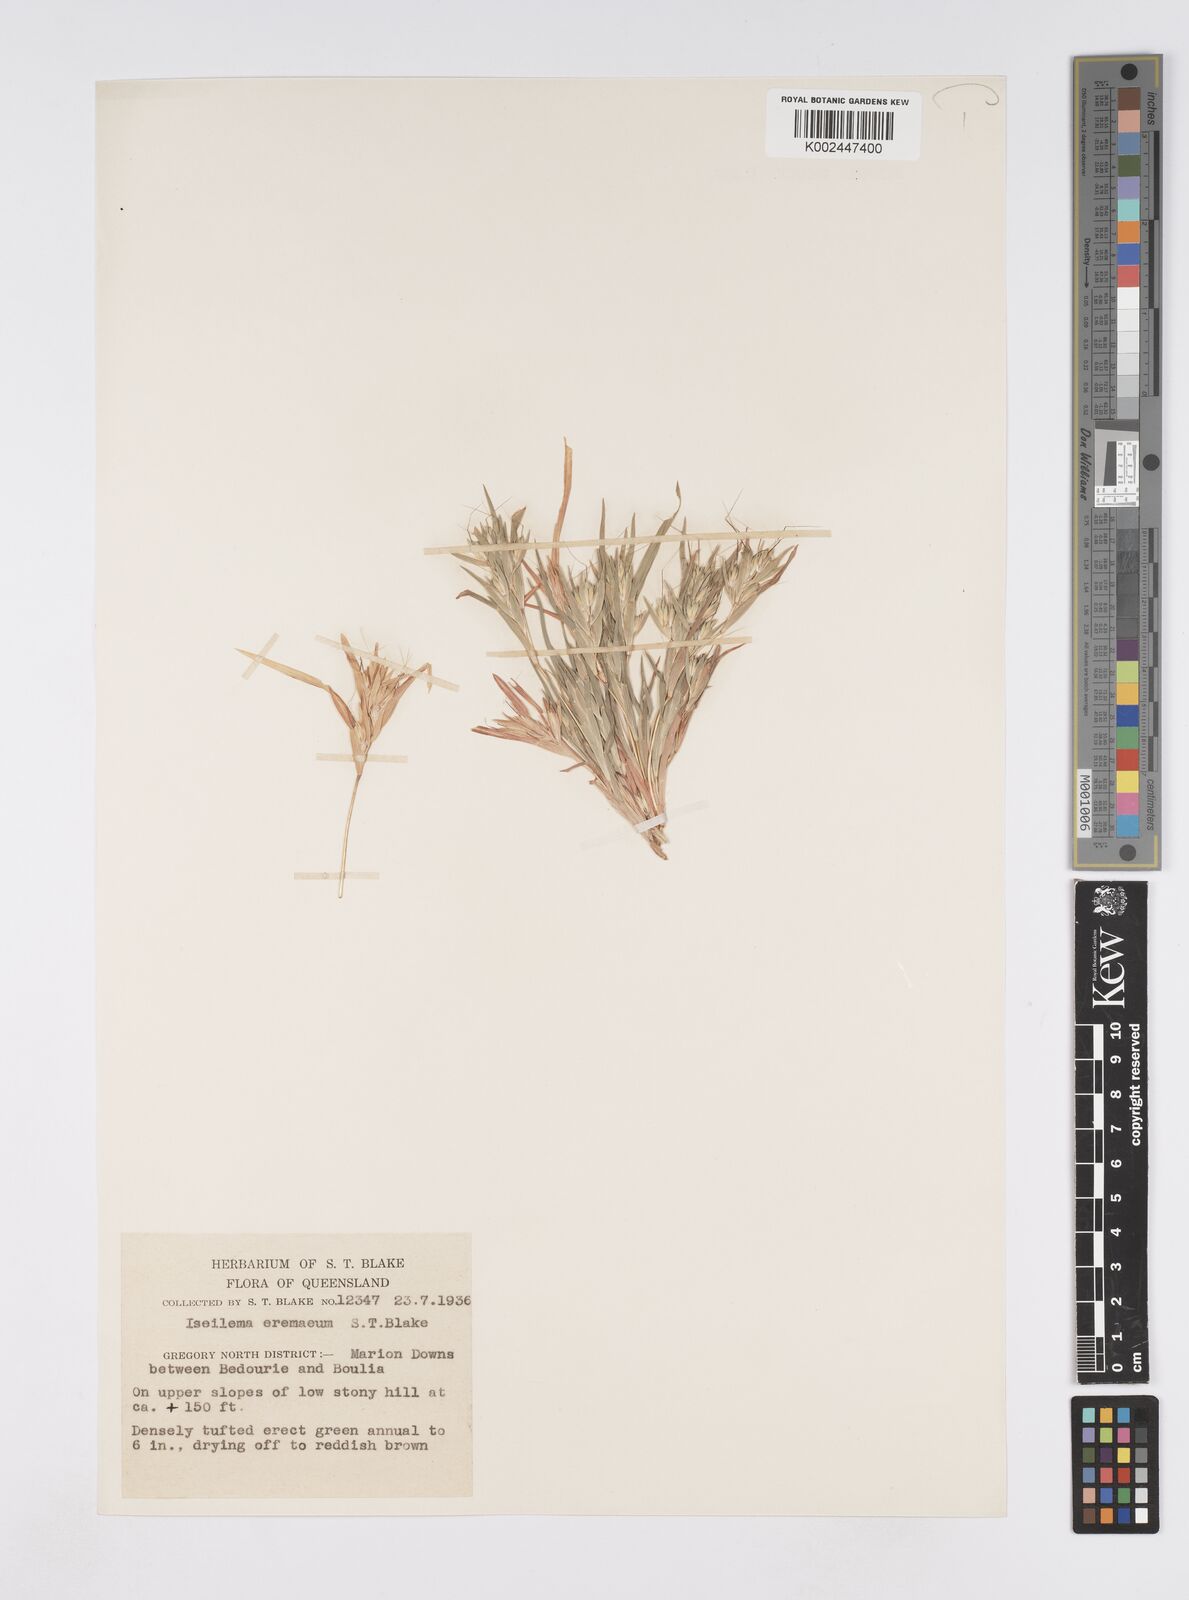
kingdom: Plantae
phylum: Tracheophyta
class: Liliopsida
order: Poales
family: Poaceae
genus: Iseilema
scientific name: Iseilema eremaeum
